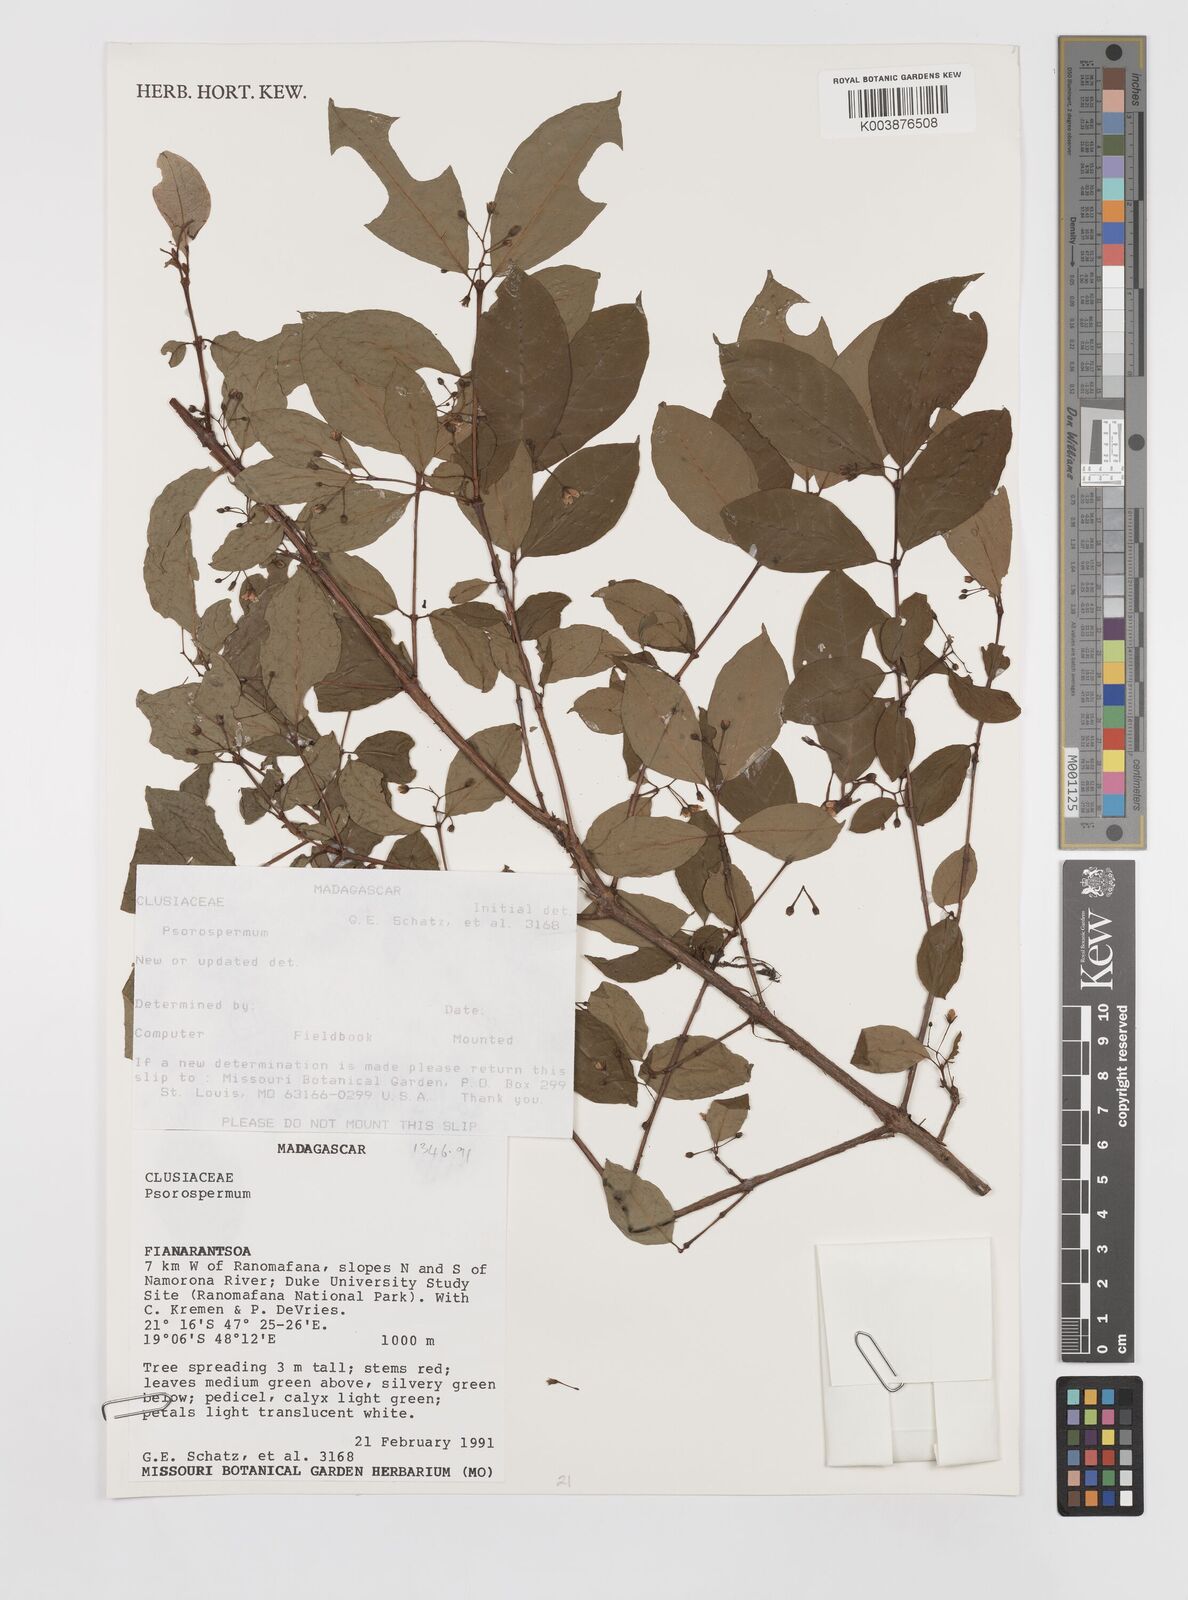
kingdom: Plantae
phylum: Tracheophyta
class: Magnoliopsida
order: Malpighiales
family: Hypericaceae
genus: Psorospermum
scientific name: Psorospermum
